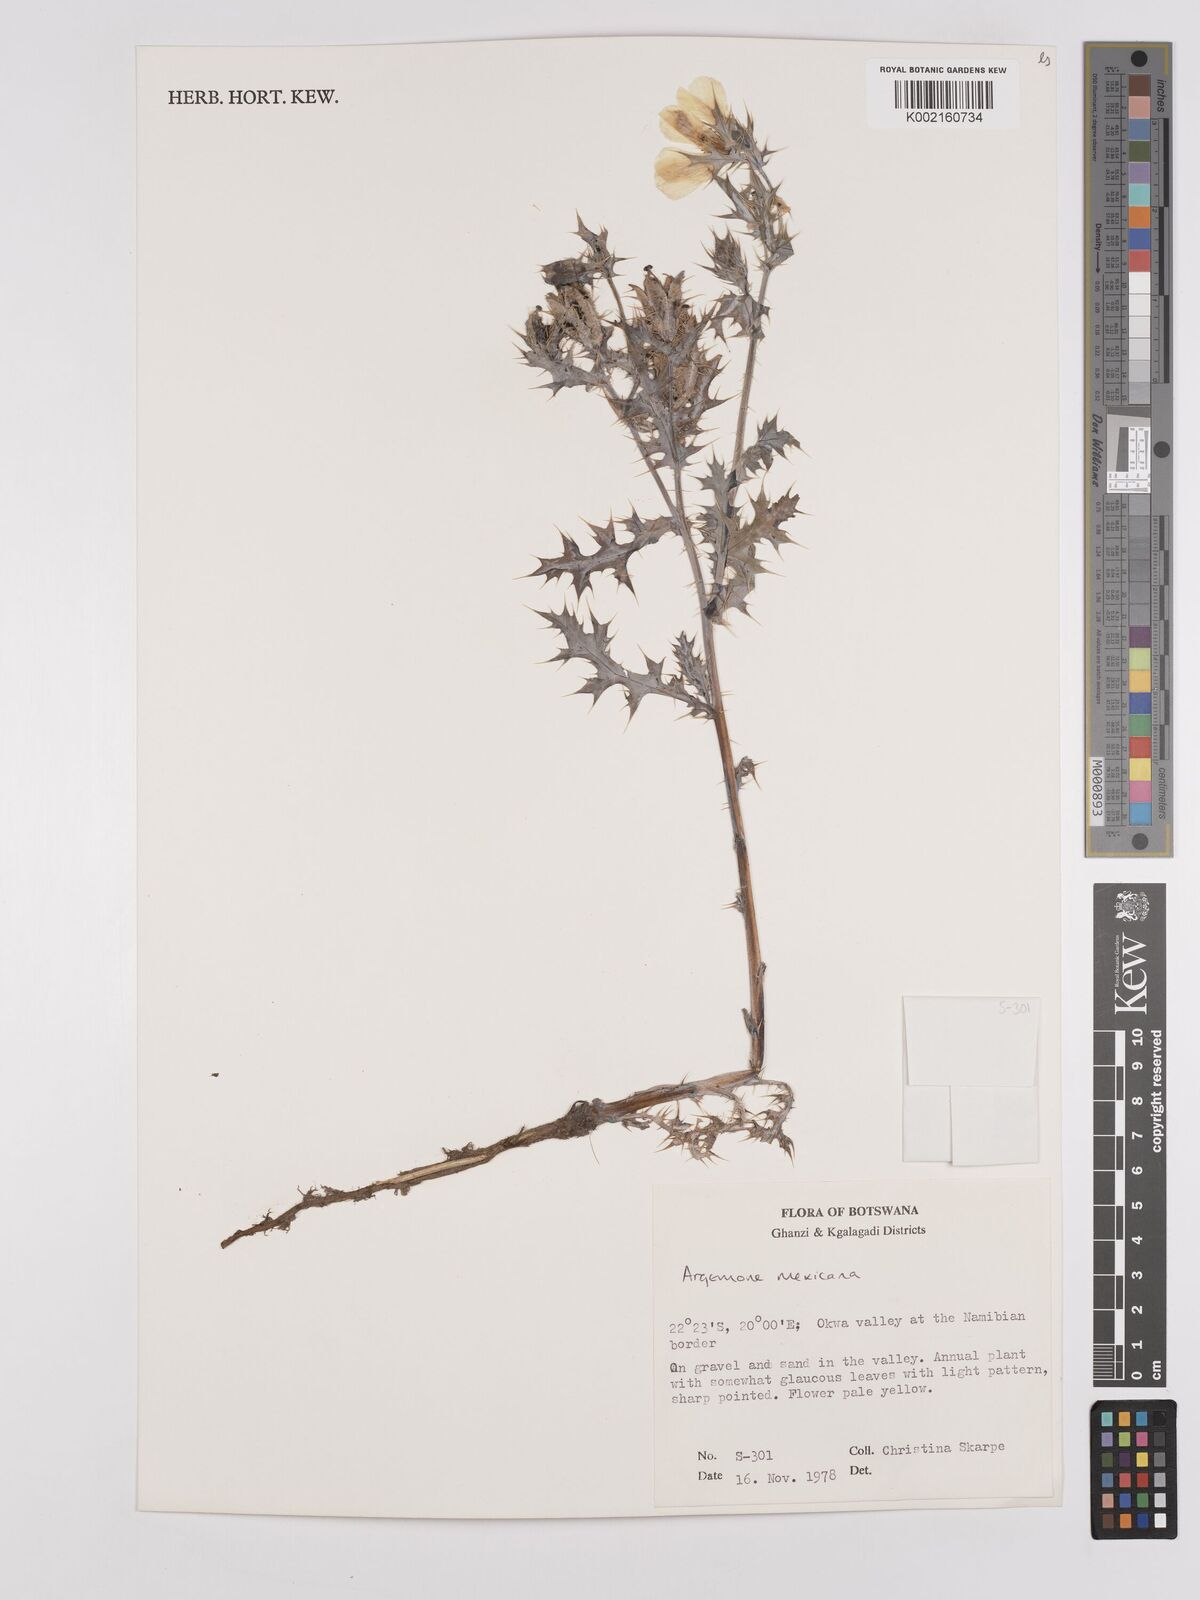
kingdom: Plantae
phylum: Tracheophyta
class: Magnoliopsida
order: Ranunculales
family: Papaveraceae
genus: Argemone
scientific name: Argemone mexicana
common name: Mexican poppy
